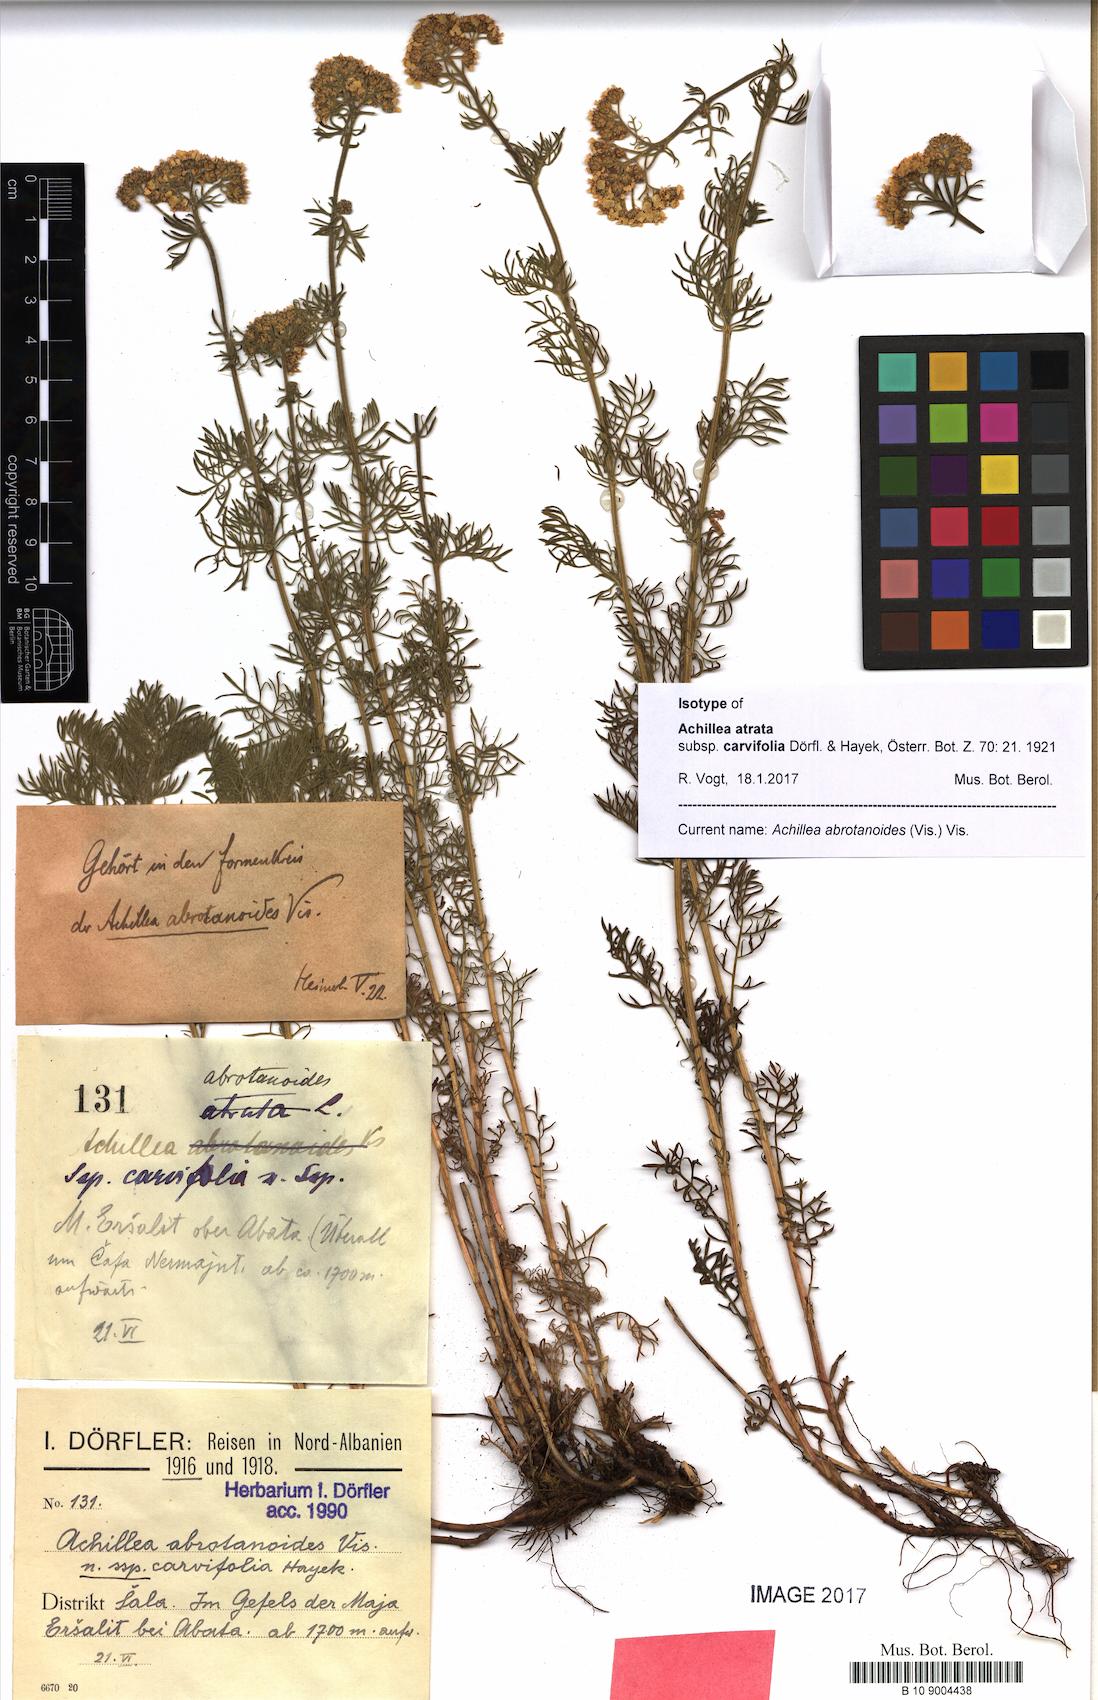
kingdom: Plantae
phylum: Tracheophyta
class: Magnoliopsida
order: Asterales
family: Asteraceae
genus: Achillea
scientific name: Achillea abrotanoides
